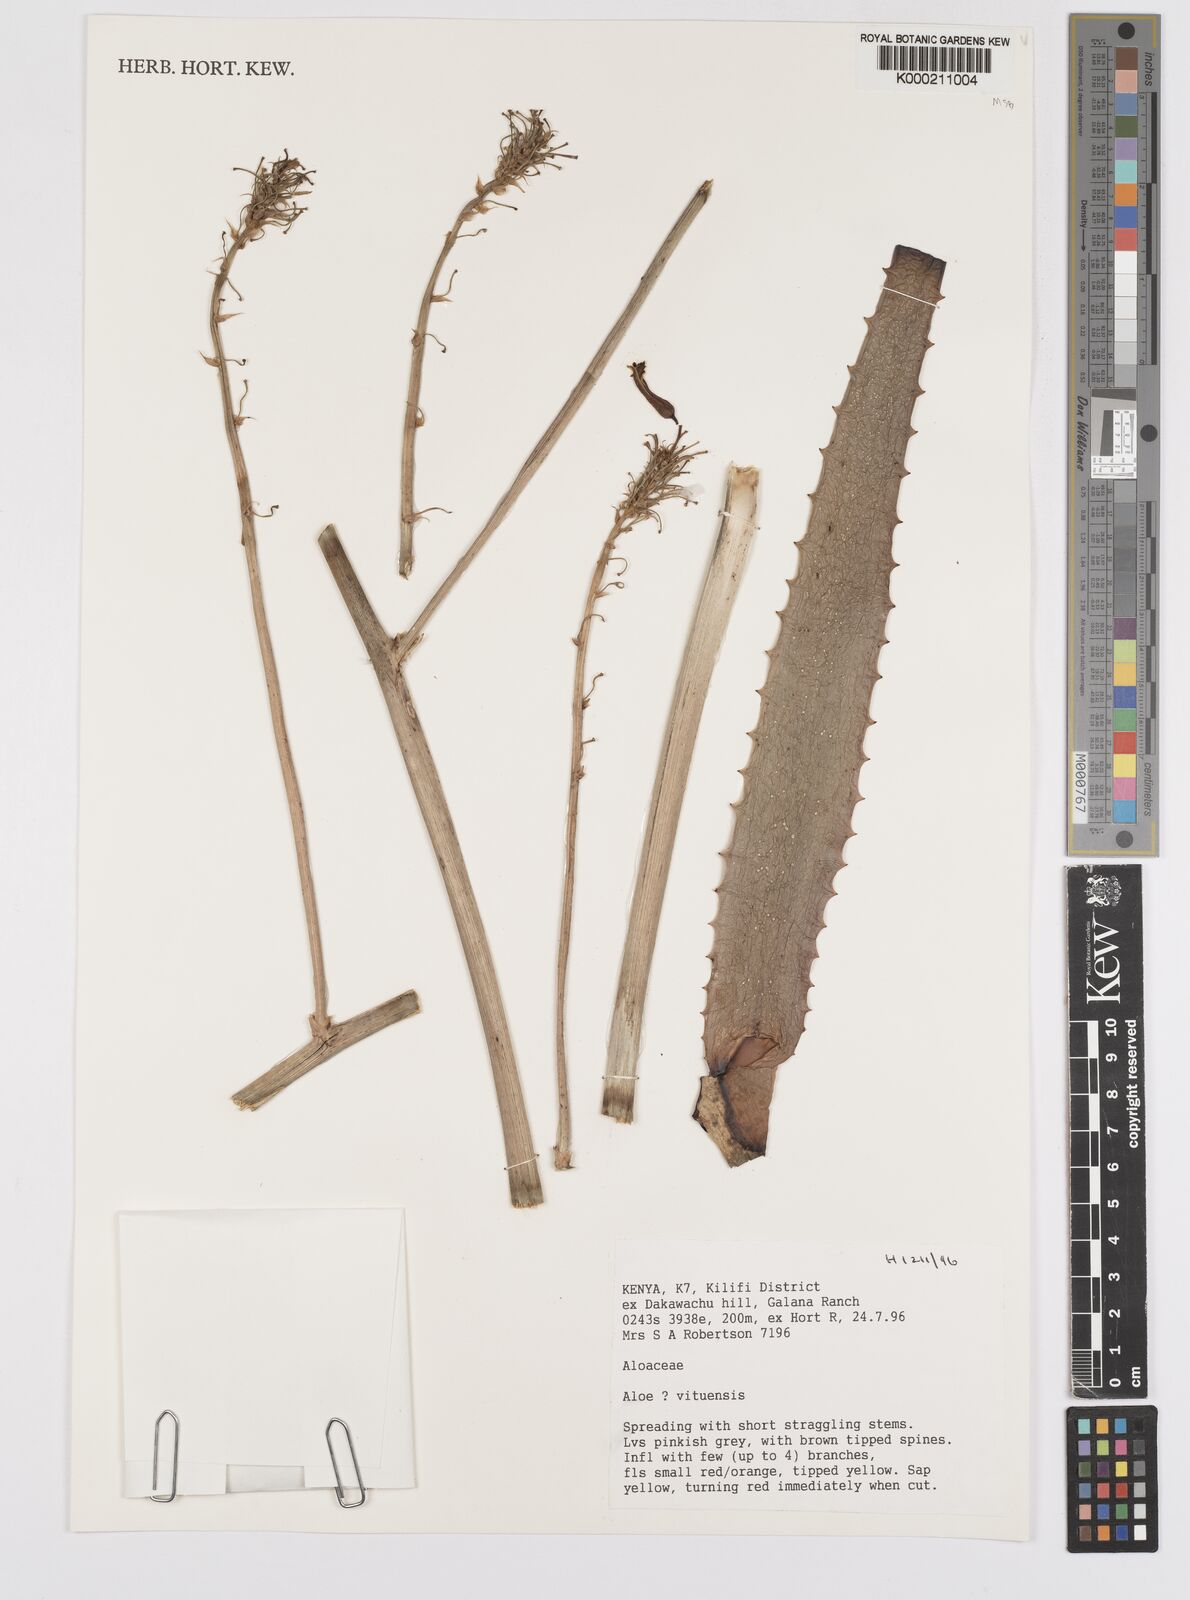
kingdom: Plantae
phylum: Tracheophyta
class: Liliopsida
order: Asparagales
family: Asphodelaceae
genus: Aloe
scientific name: Aloe vituensis
